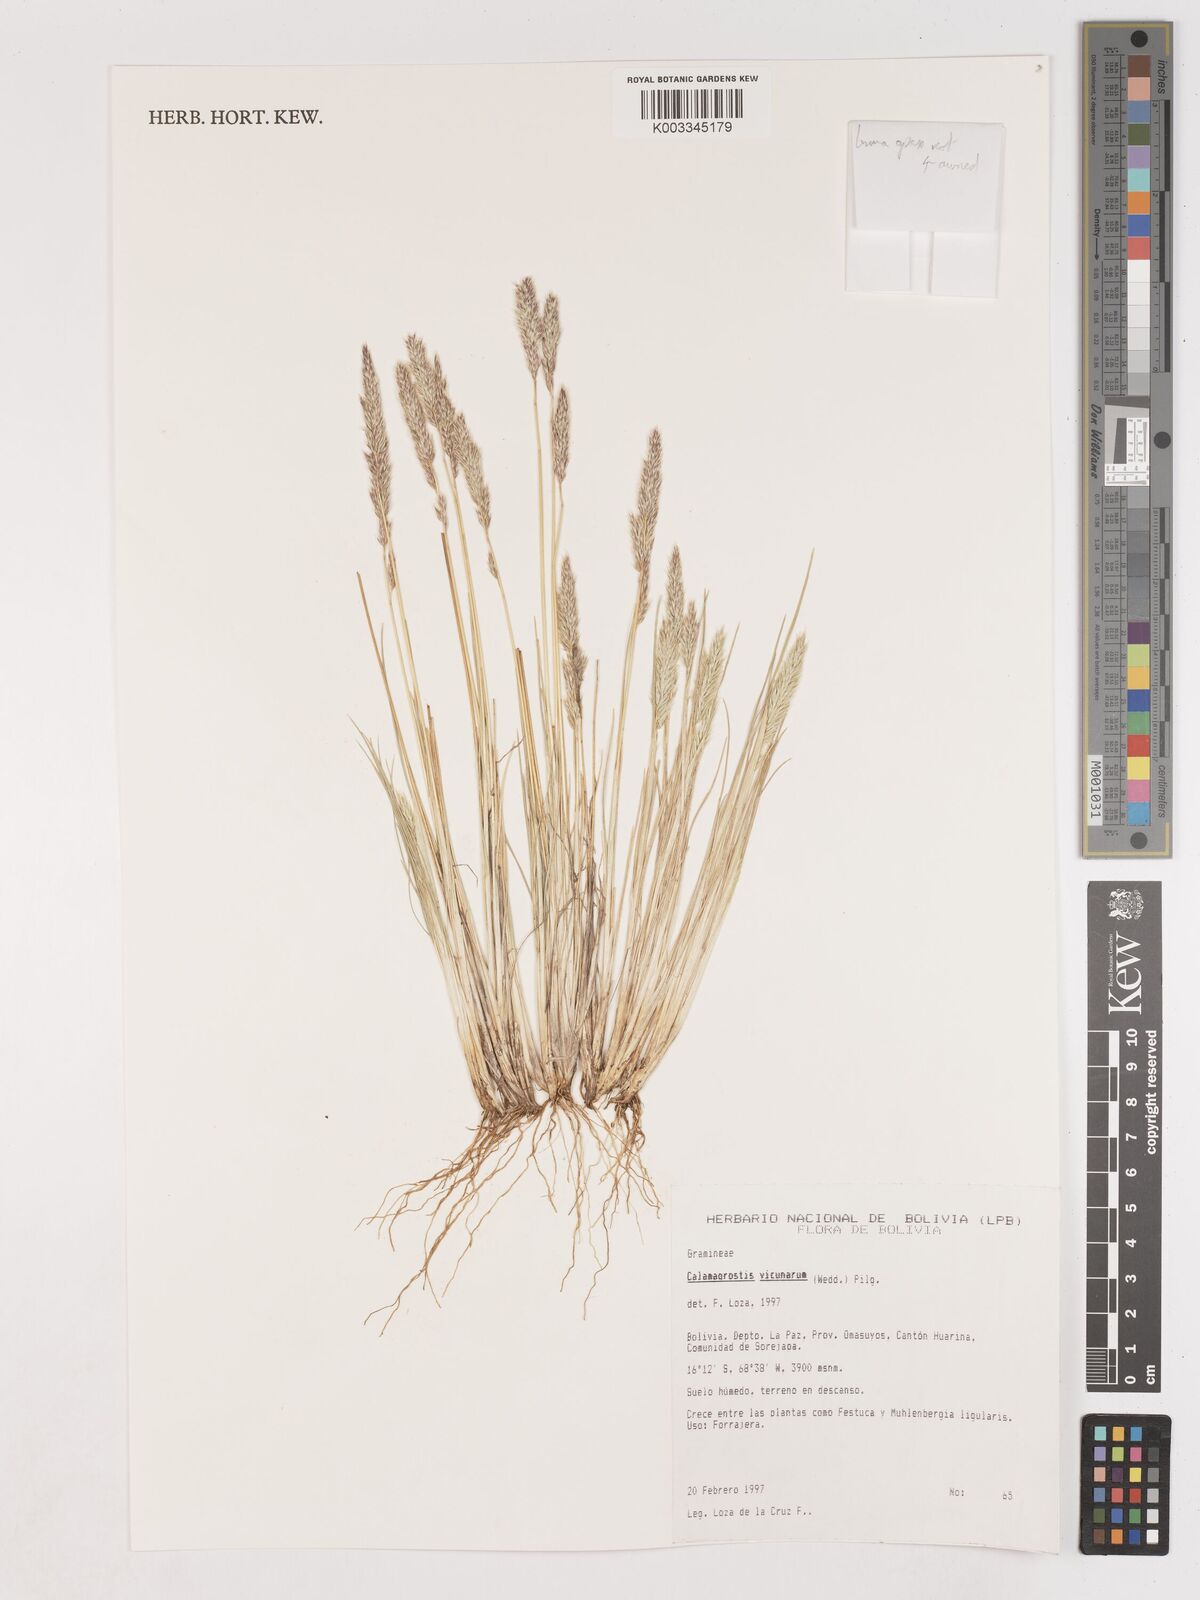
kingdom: Plantae
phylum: Tracheophyta
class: Liliopsida
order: Poales
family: Poaceae
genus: Calamagrostis
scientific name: Calamagrostis
